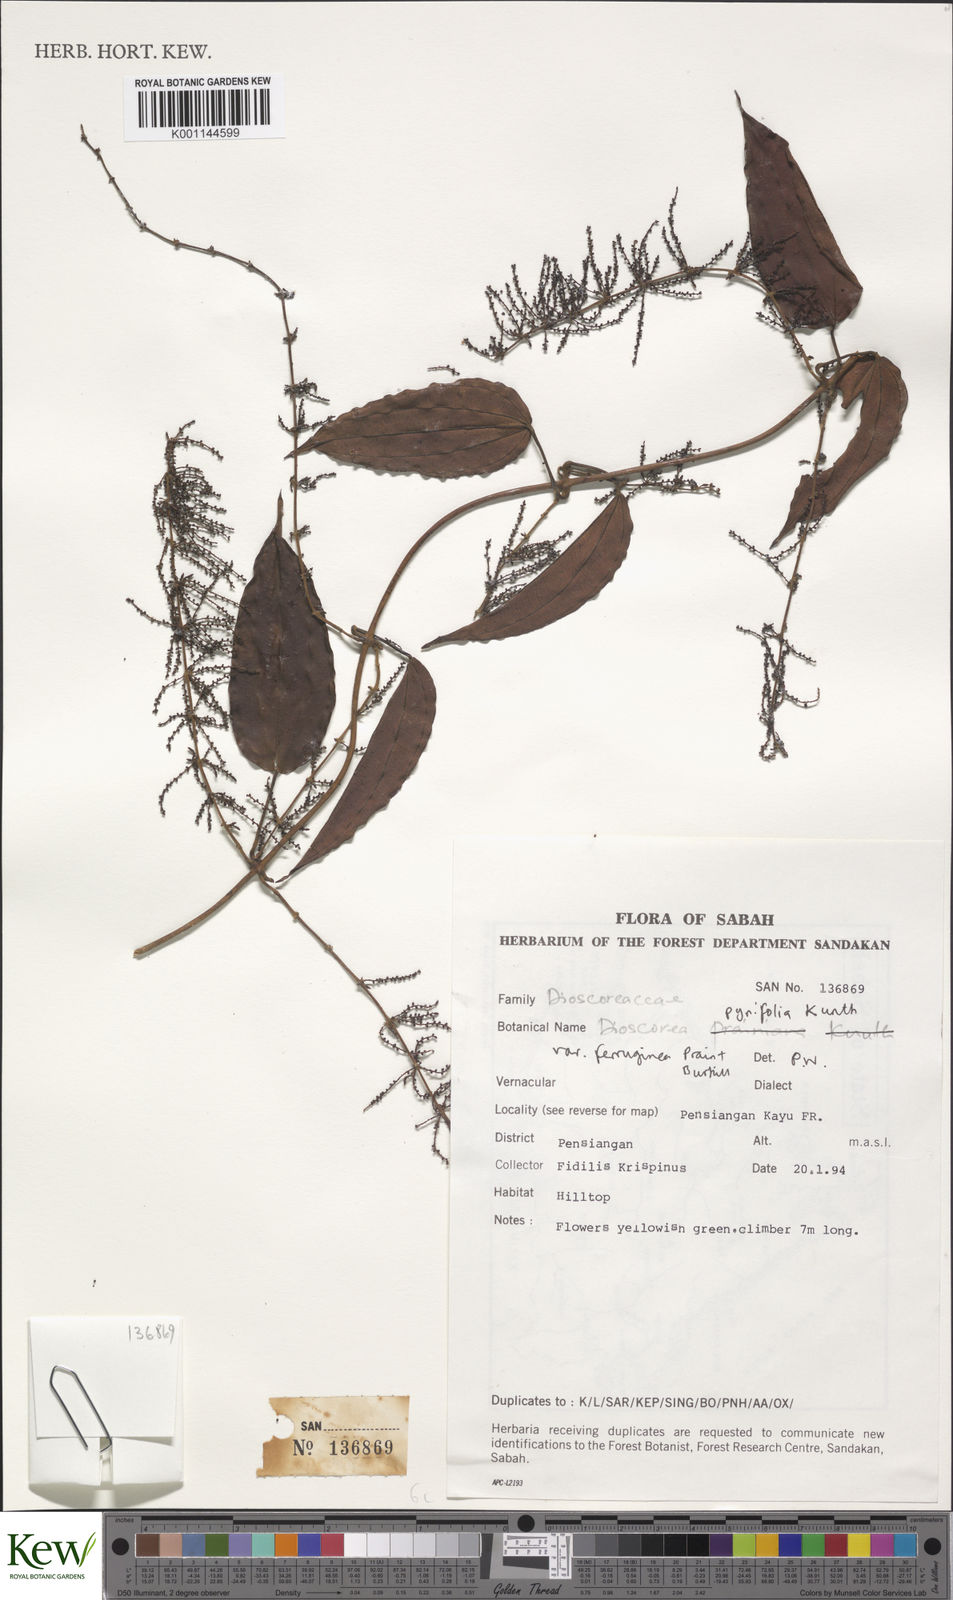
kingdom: Plantae
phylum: Tracheophyta
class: Liliopsida
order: Dioscoreales
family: Dioscoreaceae
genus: Dioscorea
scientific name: Dioscorea pyrifolia
